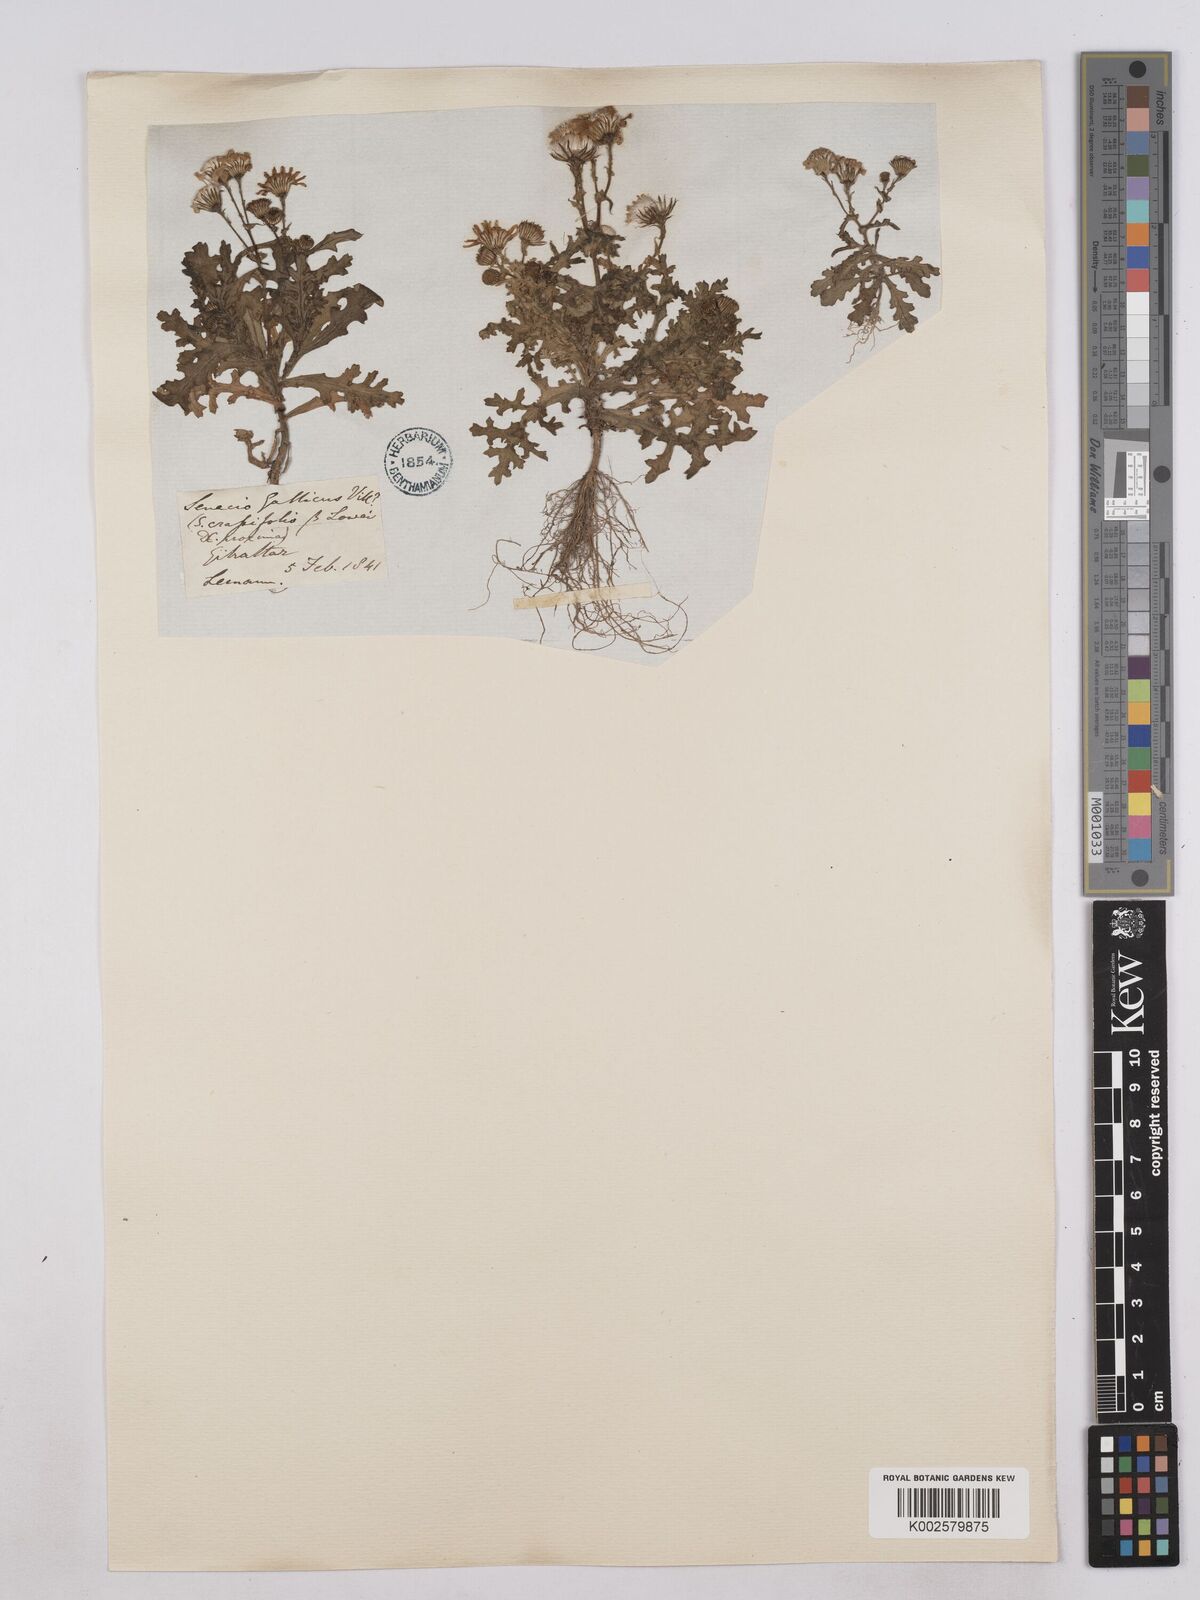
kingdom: Plantae
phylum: Tracheophyta
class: Magnoliopsida
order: Asterales
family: Asteraceae
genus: Senecio
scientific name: Senecio gallicus
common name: French groundsel
